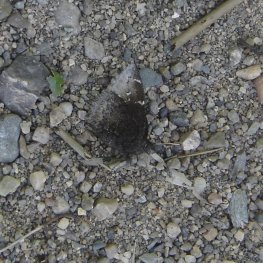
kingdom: Animalia
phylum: Arthropoda
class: Insecta
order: Lepidoptera
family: Hesperiidae
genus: Autochton
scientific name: Autochton
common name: Northern Cloudywing
